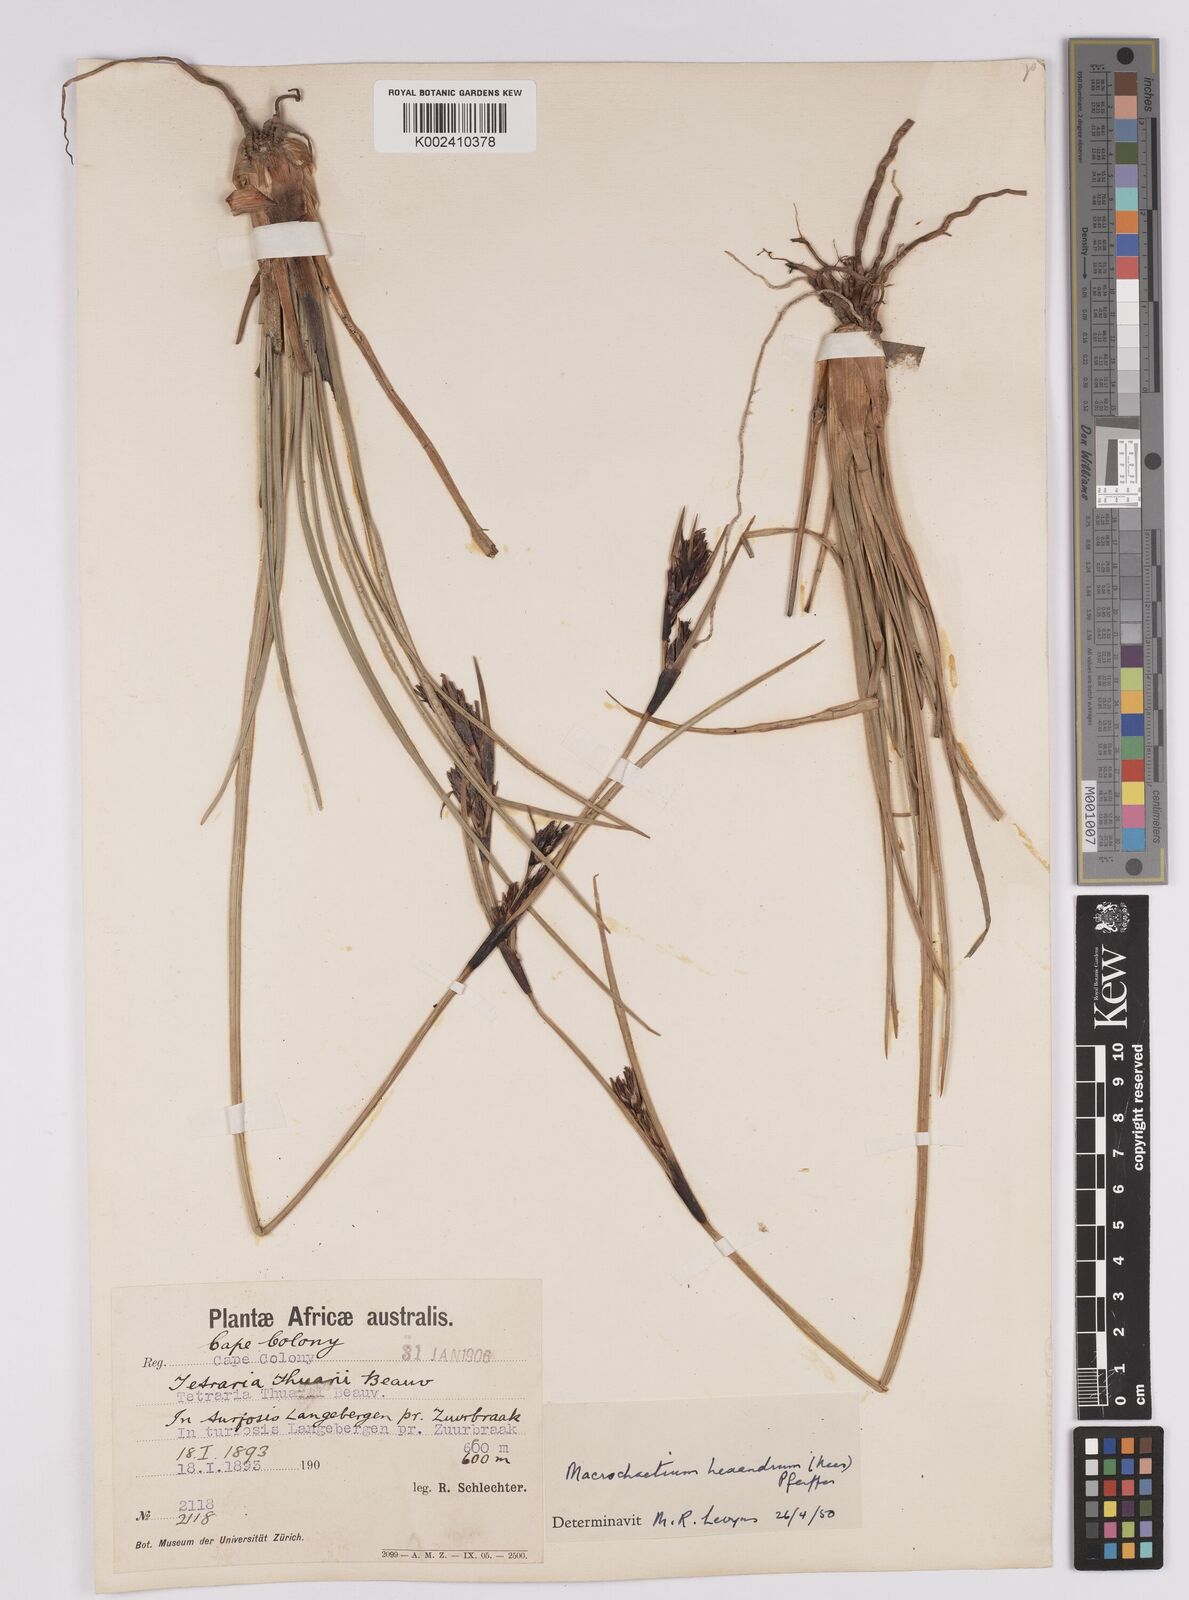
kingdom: Plantae
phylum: Tracheophyta
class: Liliopsida
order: Poales
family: Cyperaceae
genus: Cyathocoma
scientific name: Cyathocoma hexandra
